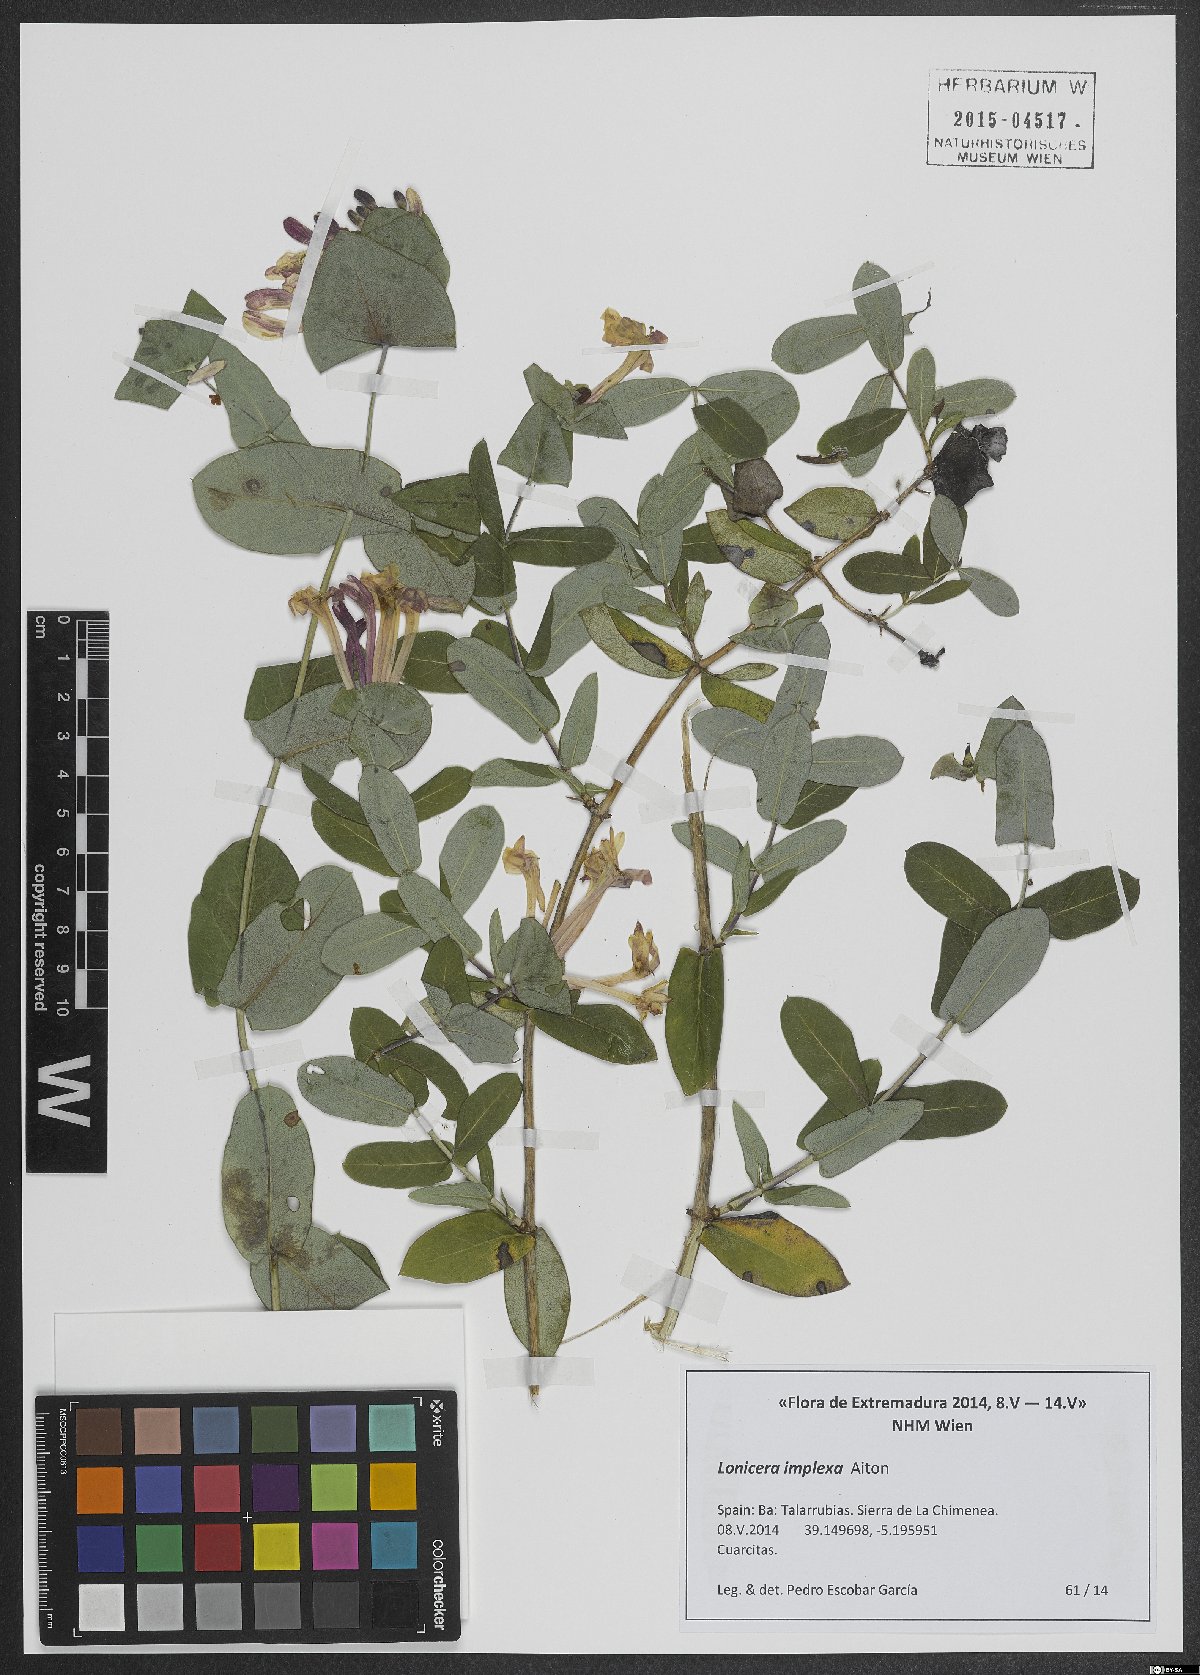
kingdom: Plantae
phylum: Tracheophyta
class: Magnoliopsida
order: Dipsacales
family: Caprifoliaceae
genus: Lonicera
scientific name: Lonicera implexa
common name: Minorca honeysuckle
